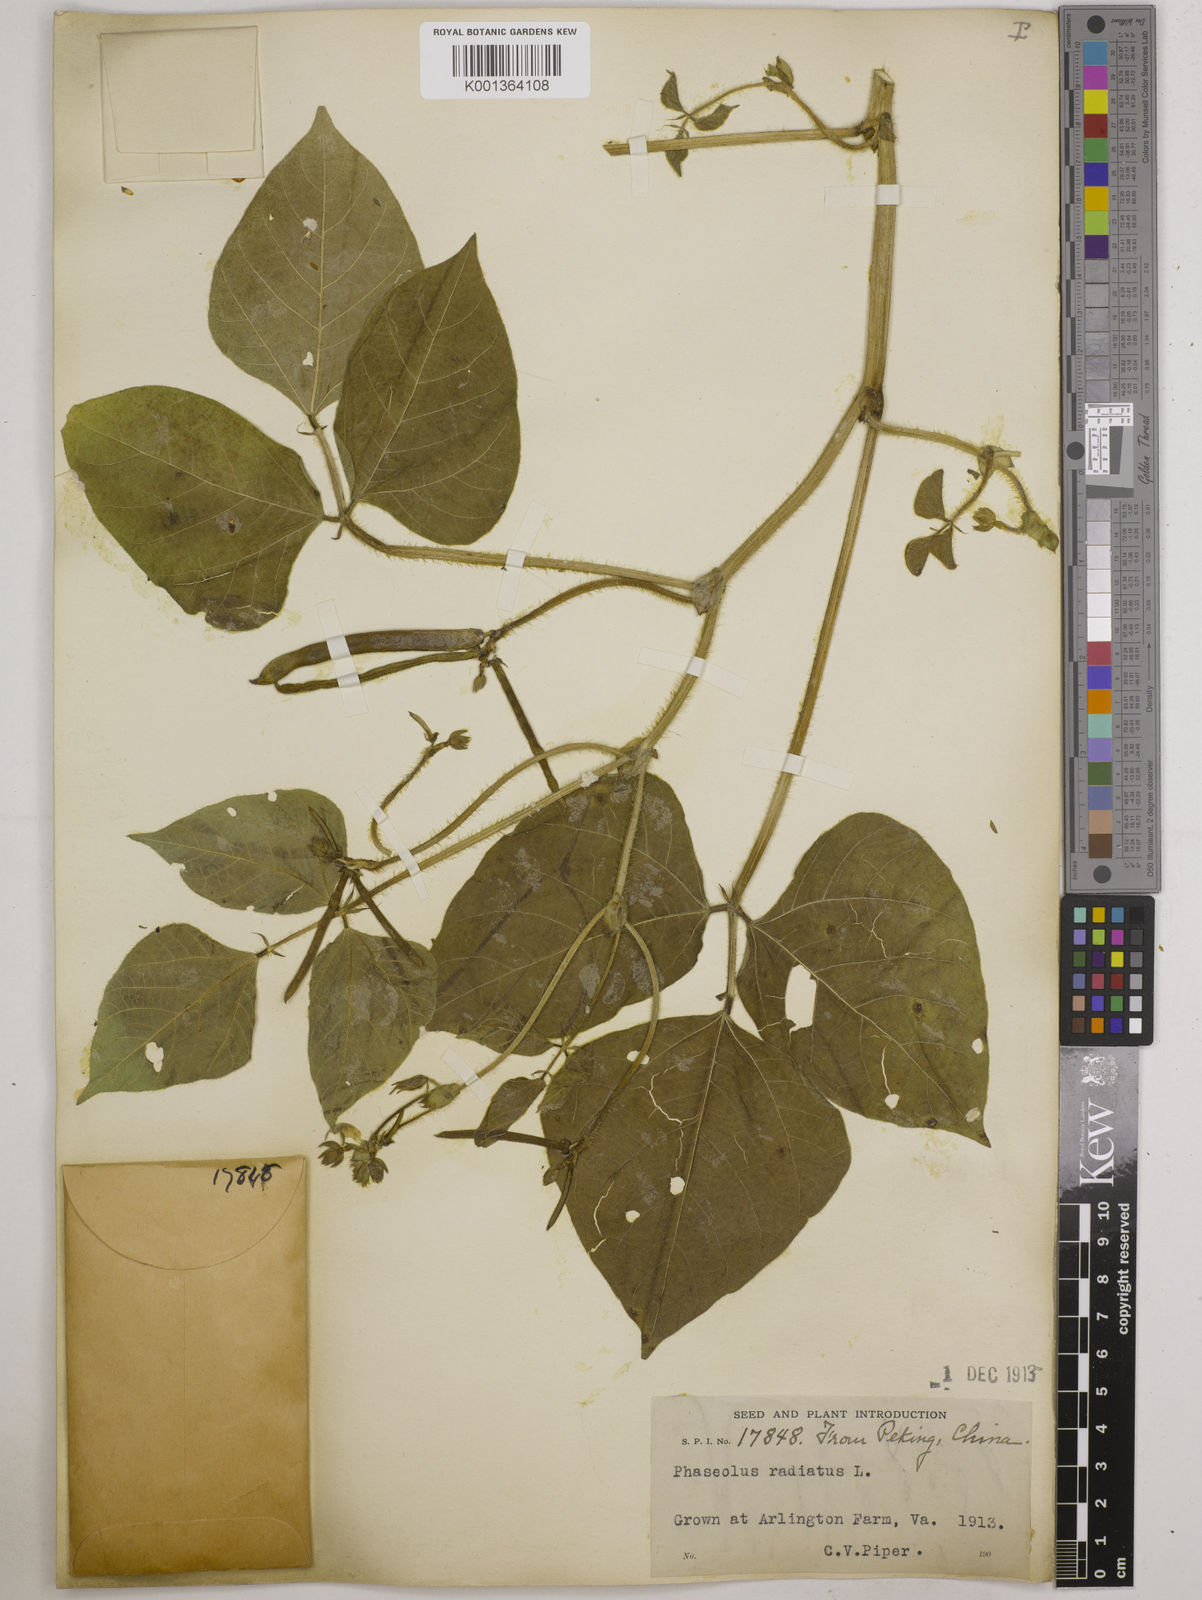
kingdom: Plantae
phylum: Tracheophyta
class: Magnoliopsida
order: Fabales
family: Fabaceae
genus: Vigna
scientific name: Vigna radiata
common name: Mung-bean
